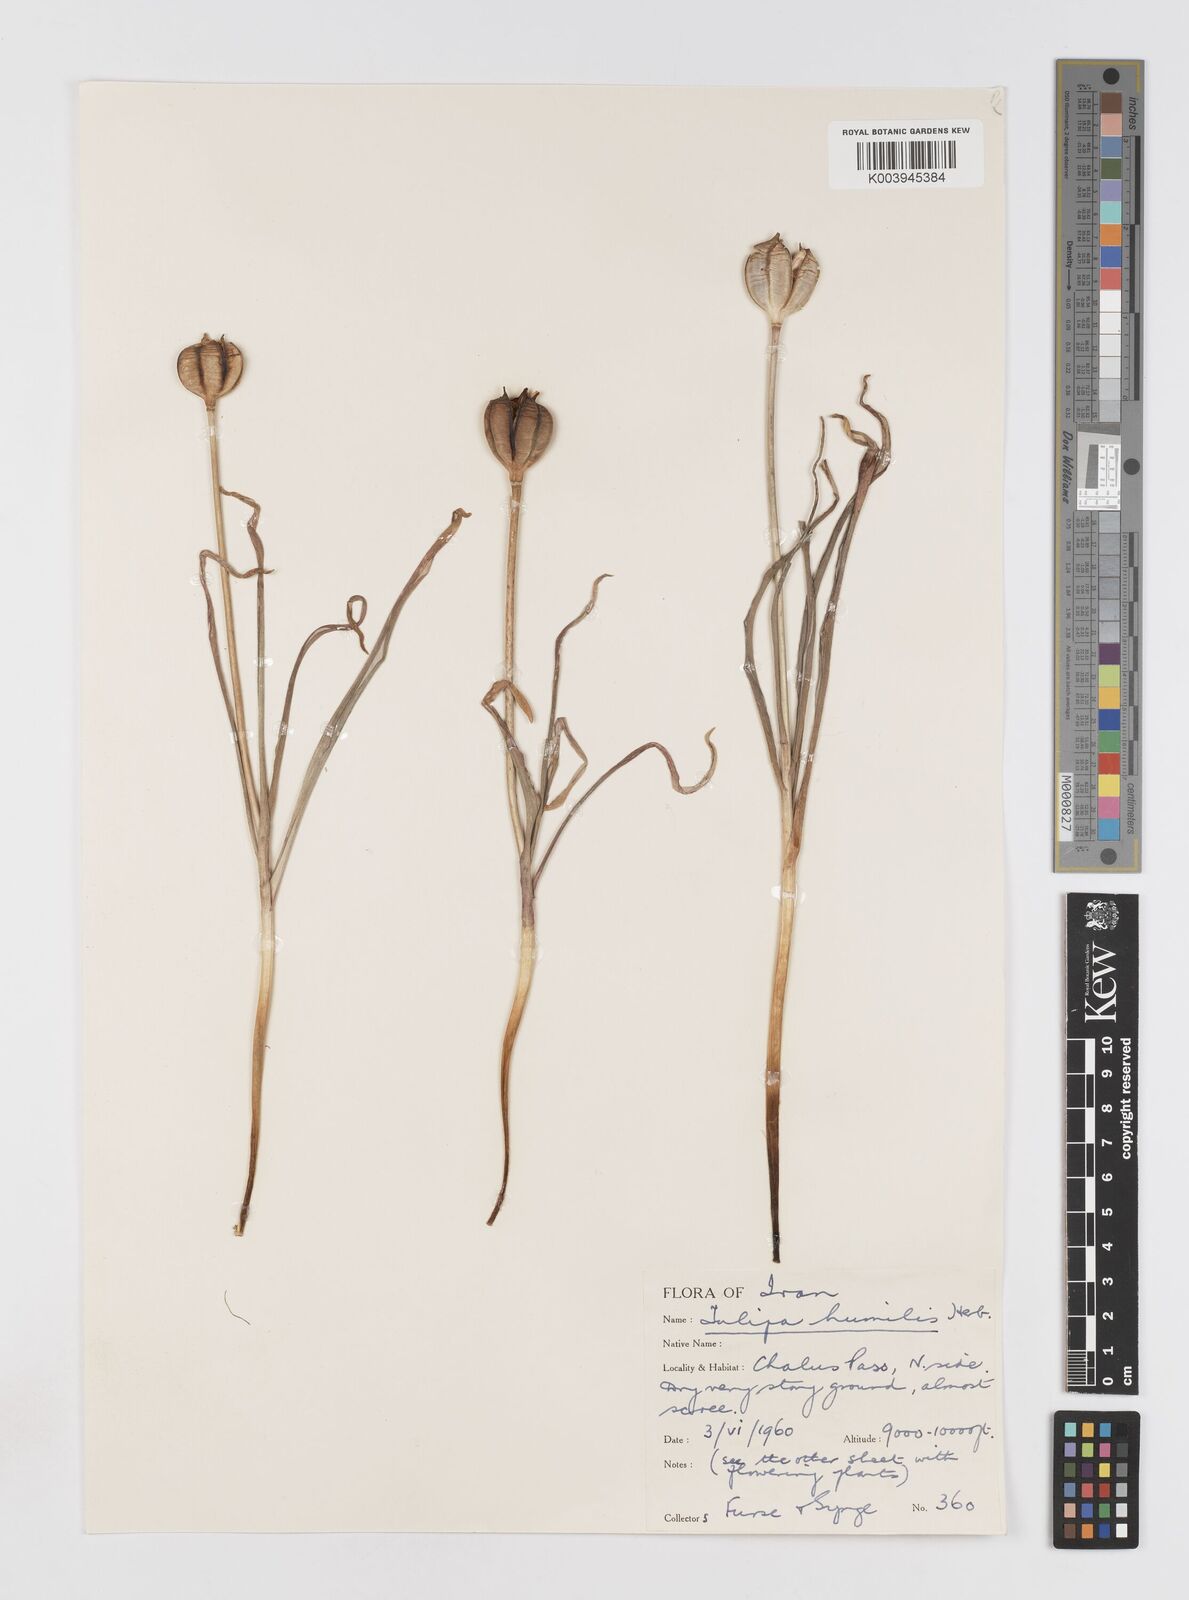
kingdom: Plantae
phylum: Tracheophyta
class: Liliopsida
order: Liliales
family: Liliaceae
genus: Tulipa
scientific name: Tulipa humilis
